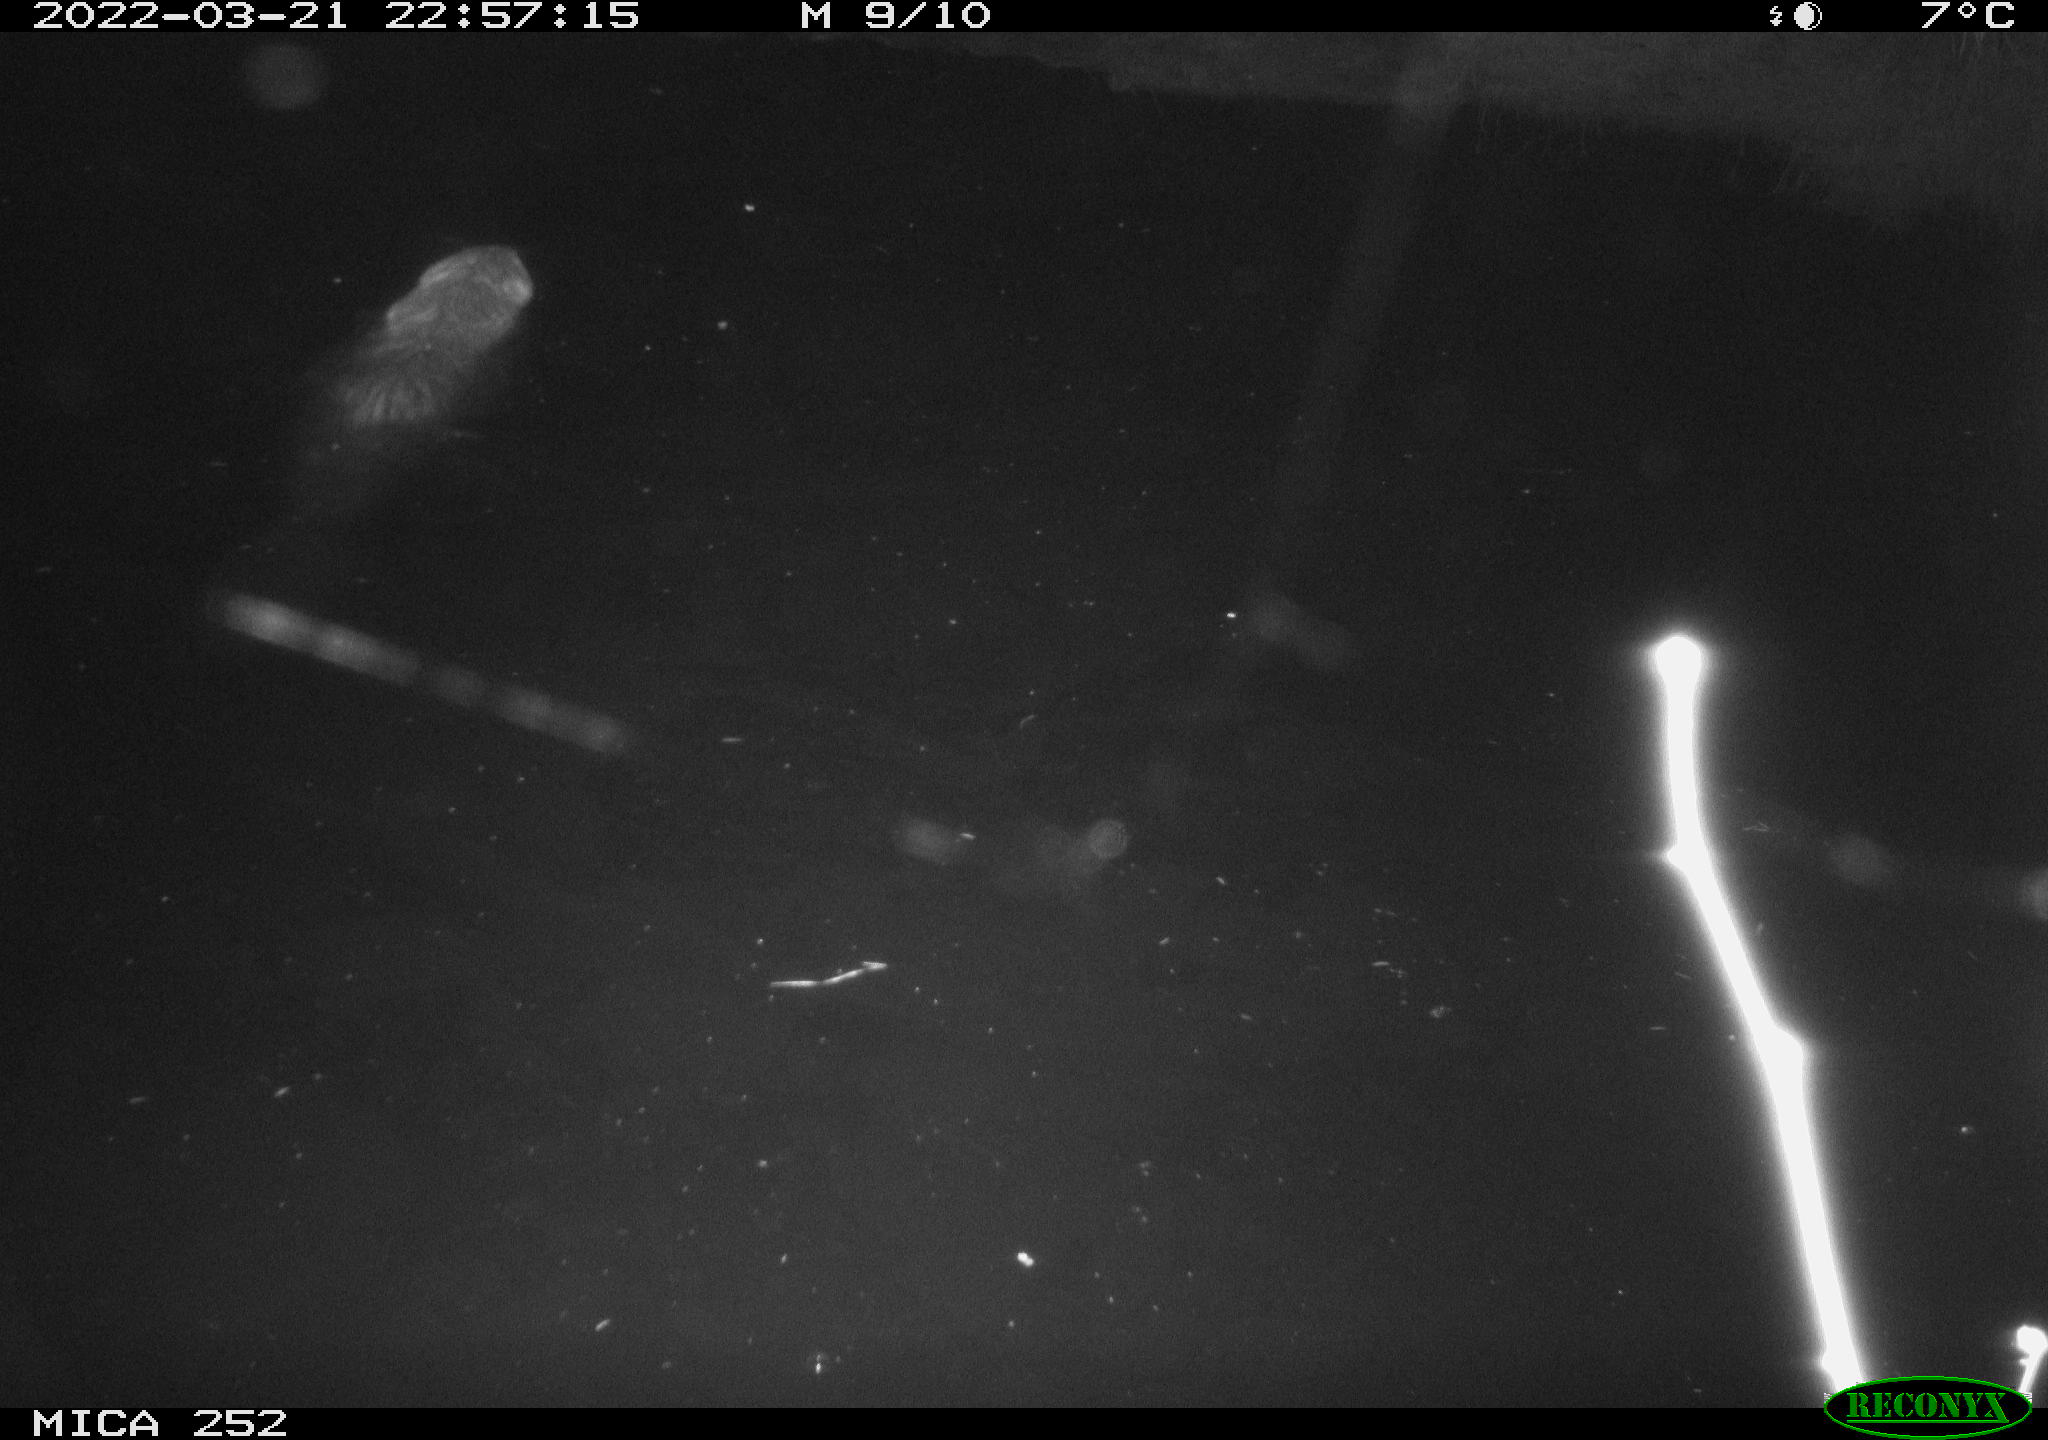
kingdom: Animalia
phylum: Chordata
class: Mammalia
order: Rodentia
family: Castoridae
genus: Castor
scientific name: Castor fiber
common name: Eurasian beaver
